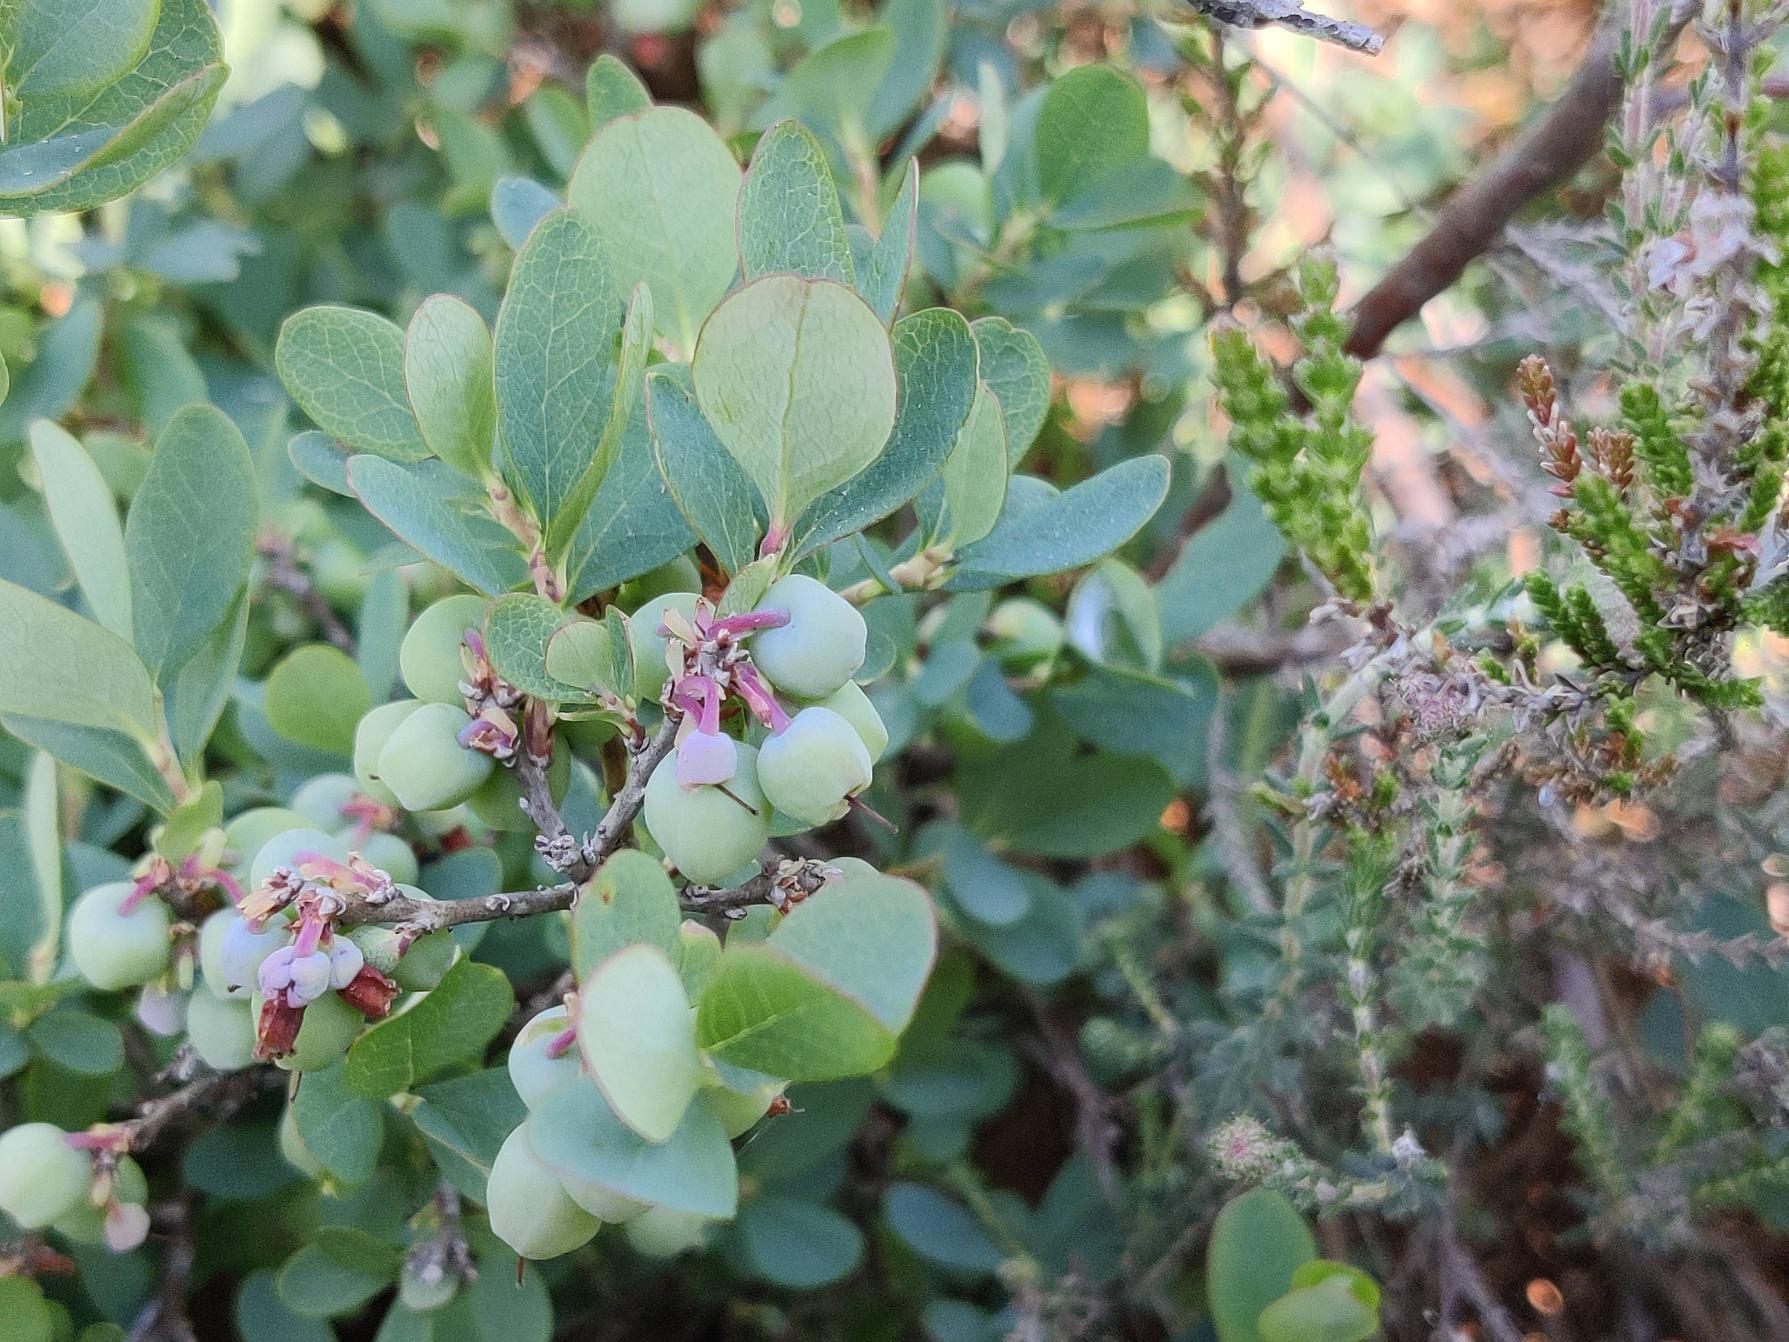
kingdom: Plantae
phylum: Tracheophyta
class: Magnoliopsida
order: Ericales
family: Ericaceae
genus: Vaccinium
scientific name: Vaccinium uliginosum
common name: Mose-bølle
